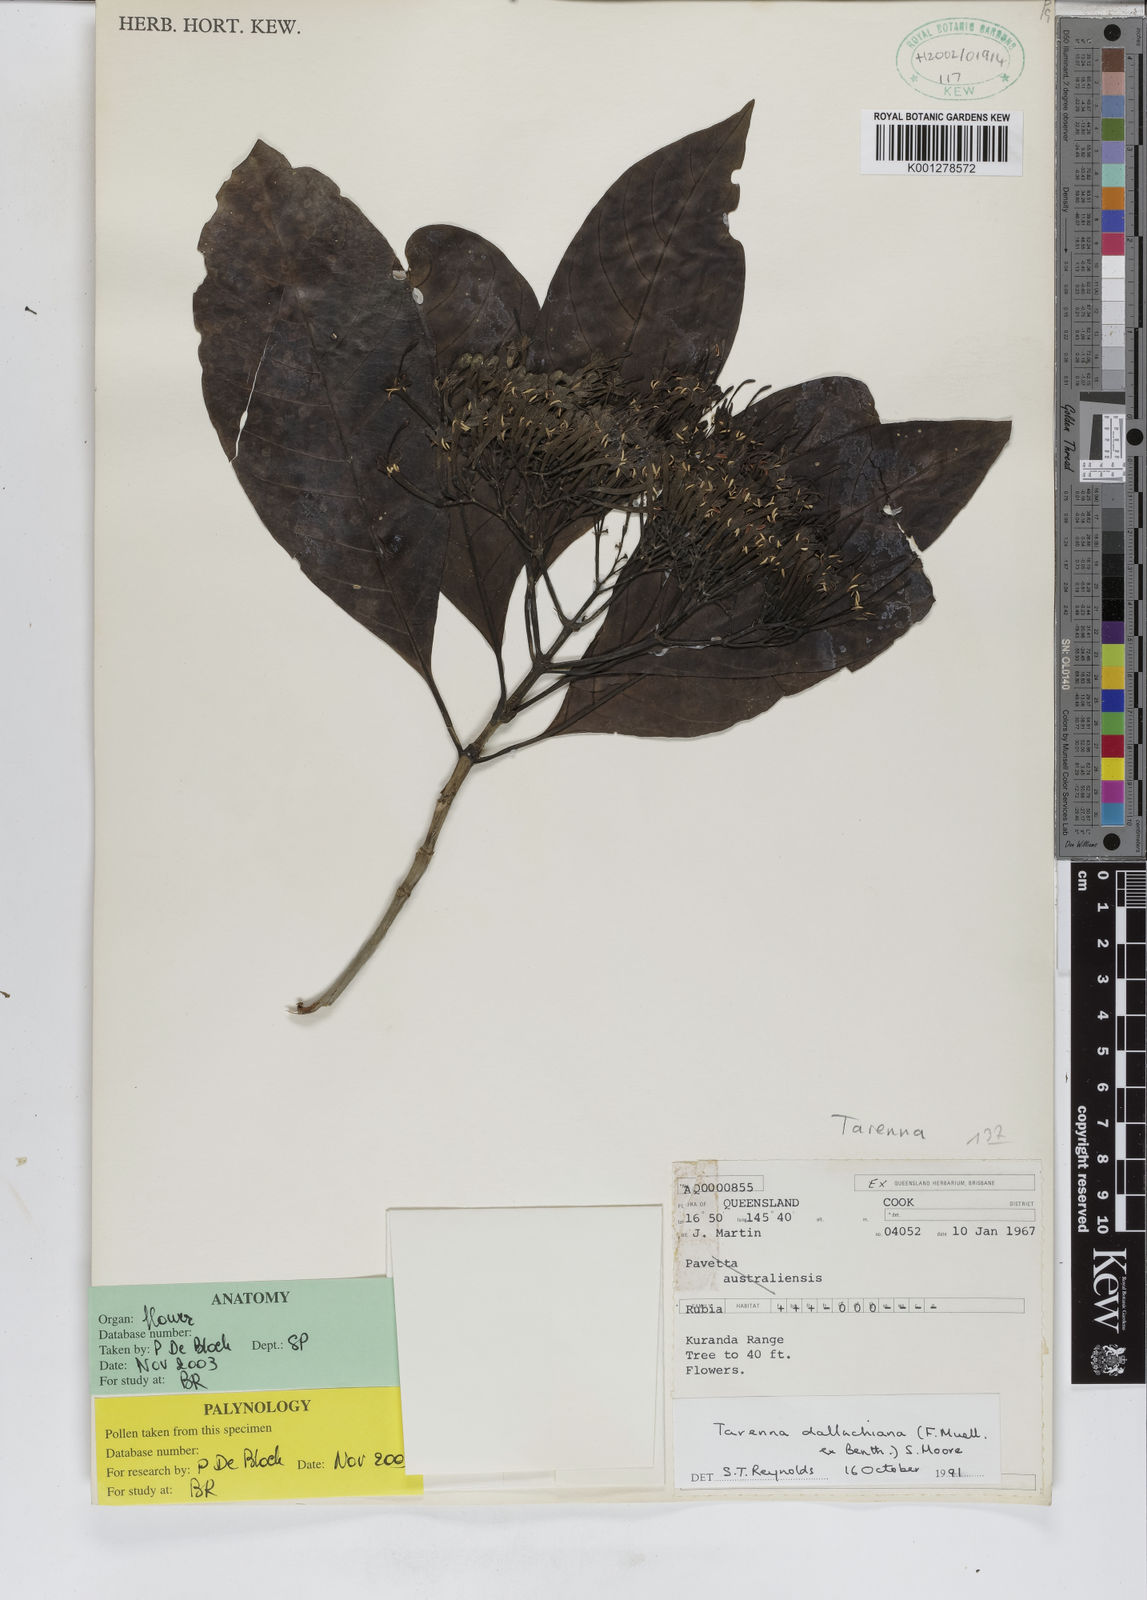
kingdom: Plantae
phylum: Tracheophyta
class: Magnoliopsida
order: Gentianales
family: Rubiaceae
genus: Tarenna
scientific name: Tarenna dallachiana
